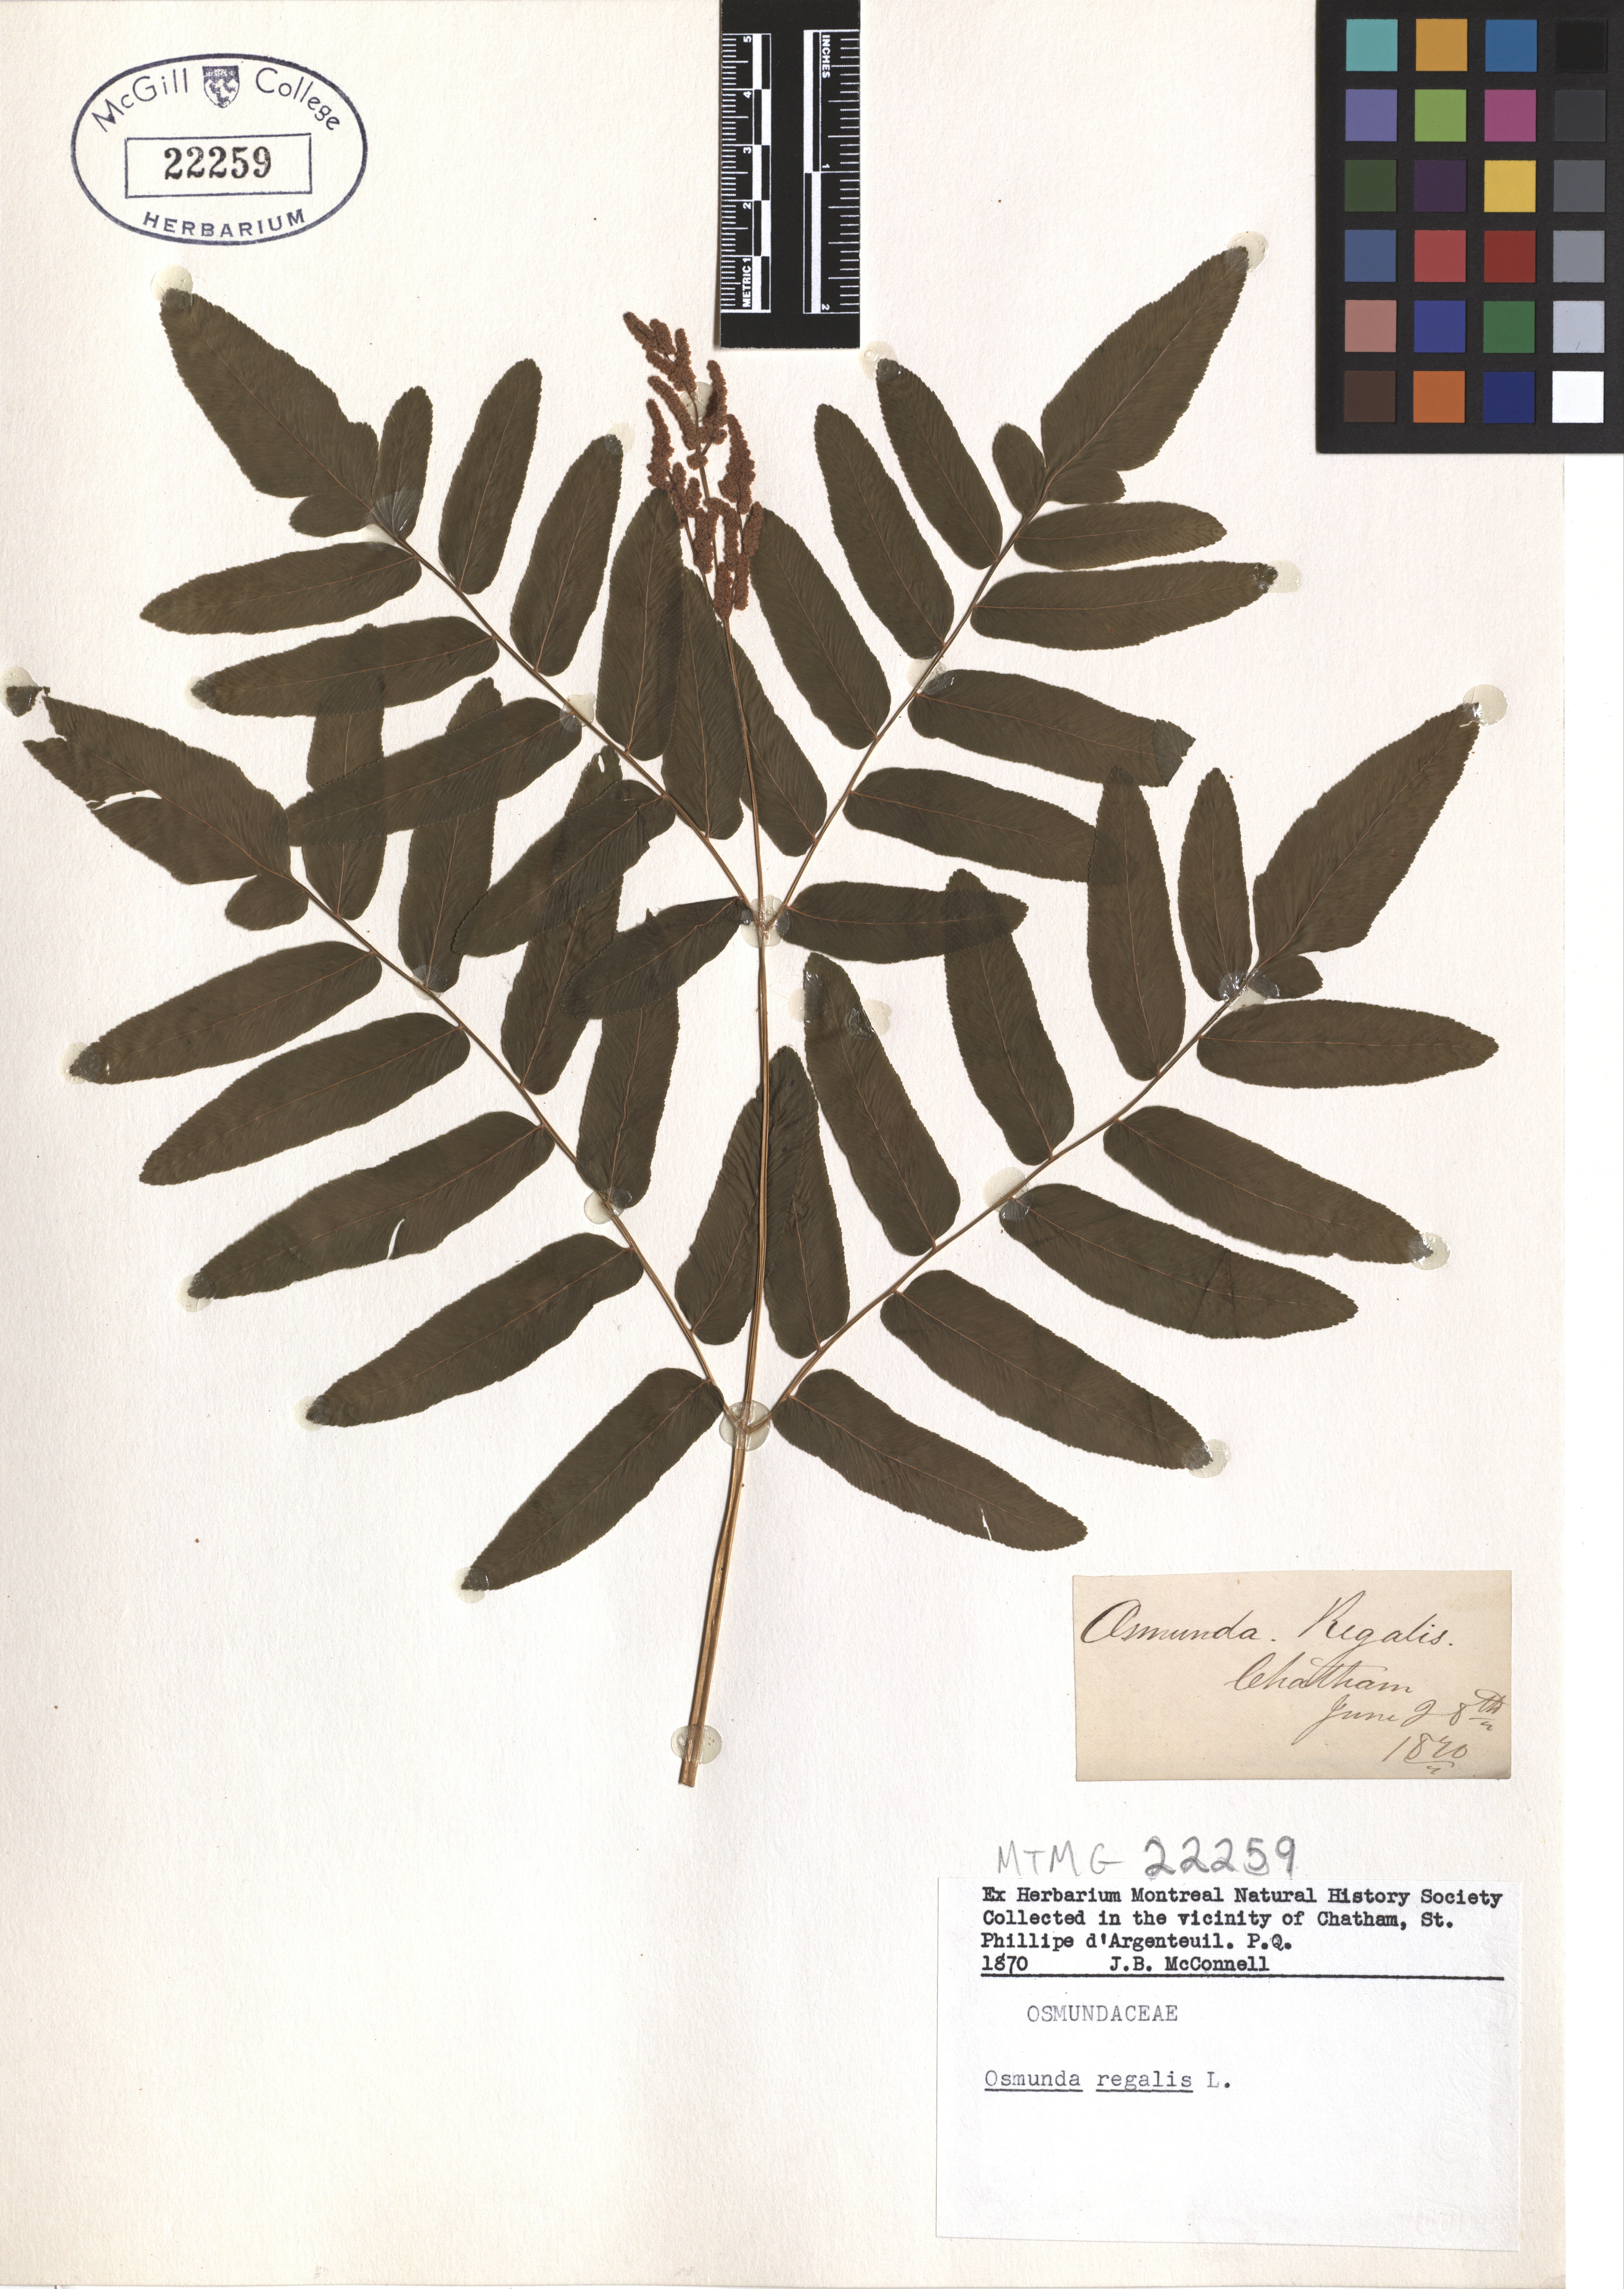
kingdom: Plantae
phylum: Tracheophyta
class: Polypodiopsida
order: Osmundales
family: Osmundaceae
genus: Osmunda
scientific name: Osmunda regalis
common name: Royal fern
